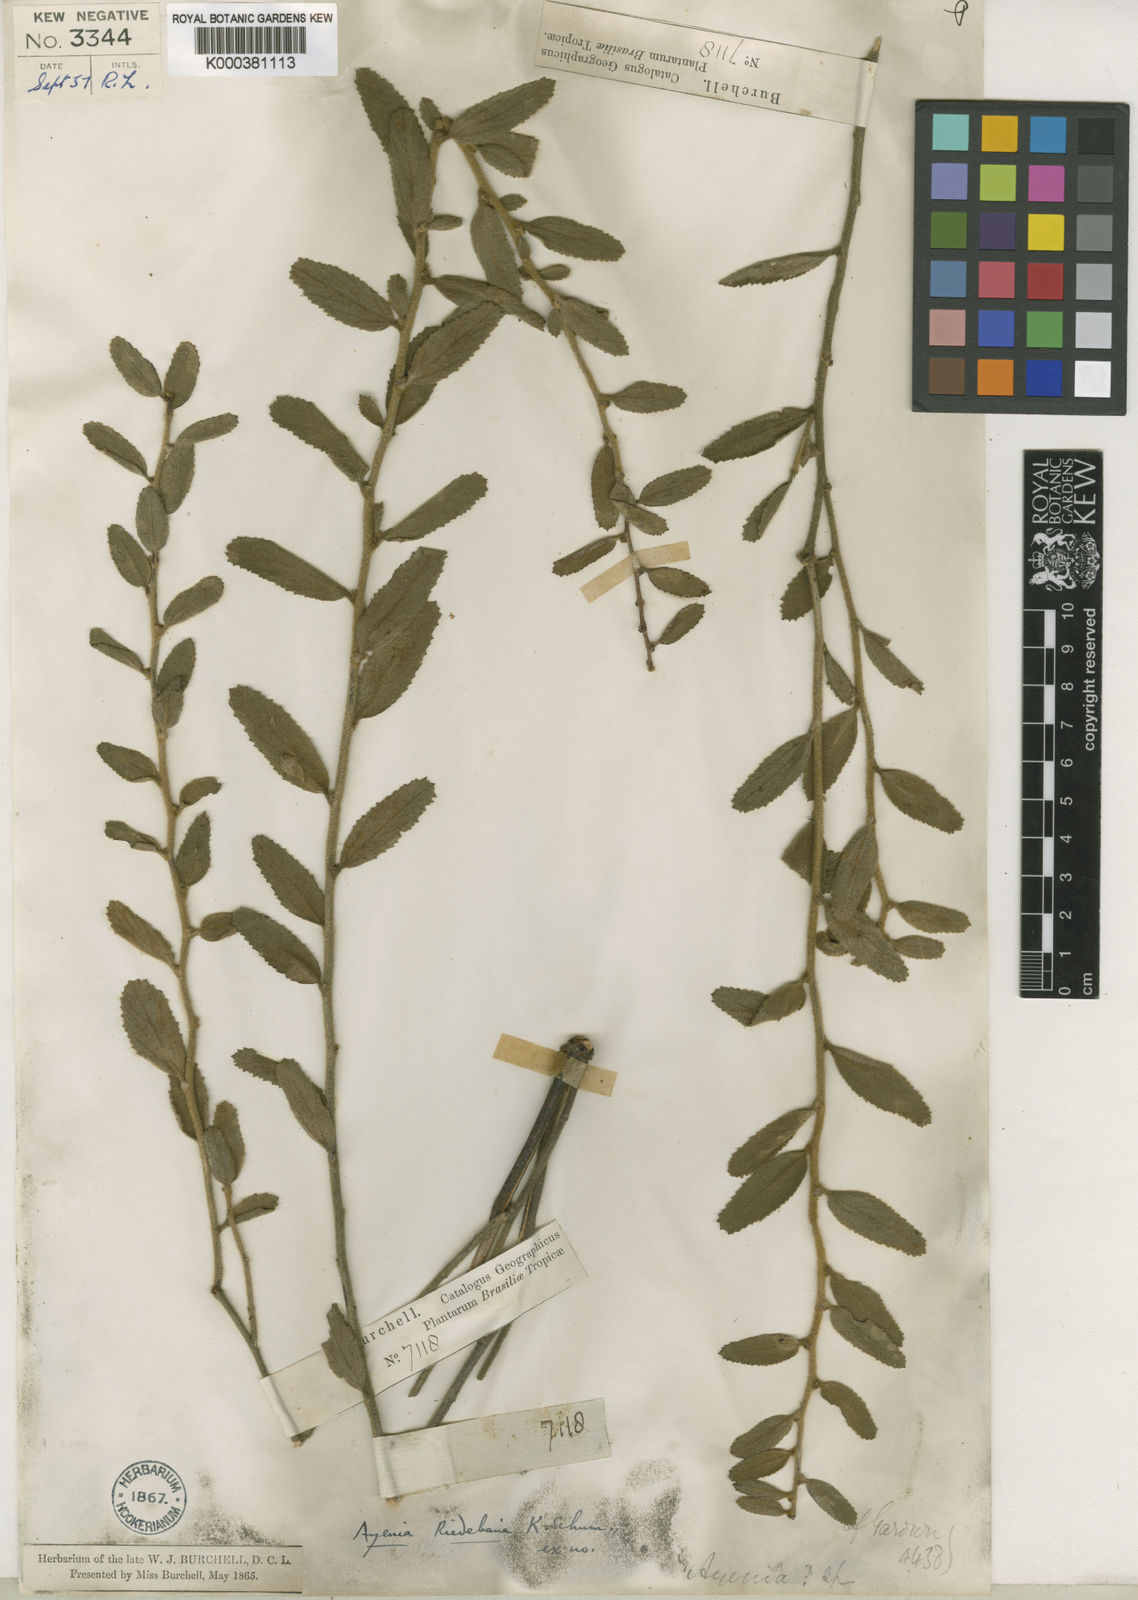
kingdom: Plantae
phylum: Tracheophyta
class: Magnoliopsida
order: Malvales
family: Malvaceae
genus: Ayenia
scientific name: Ayenia angustifolia
